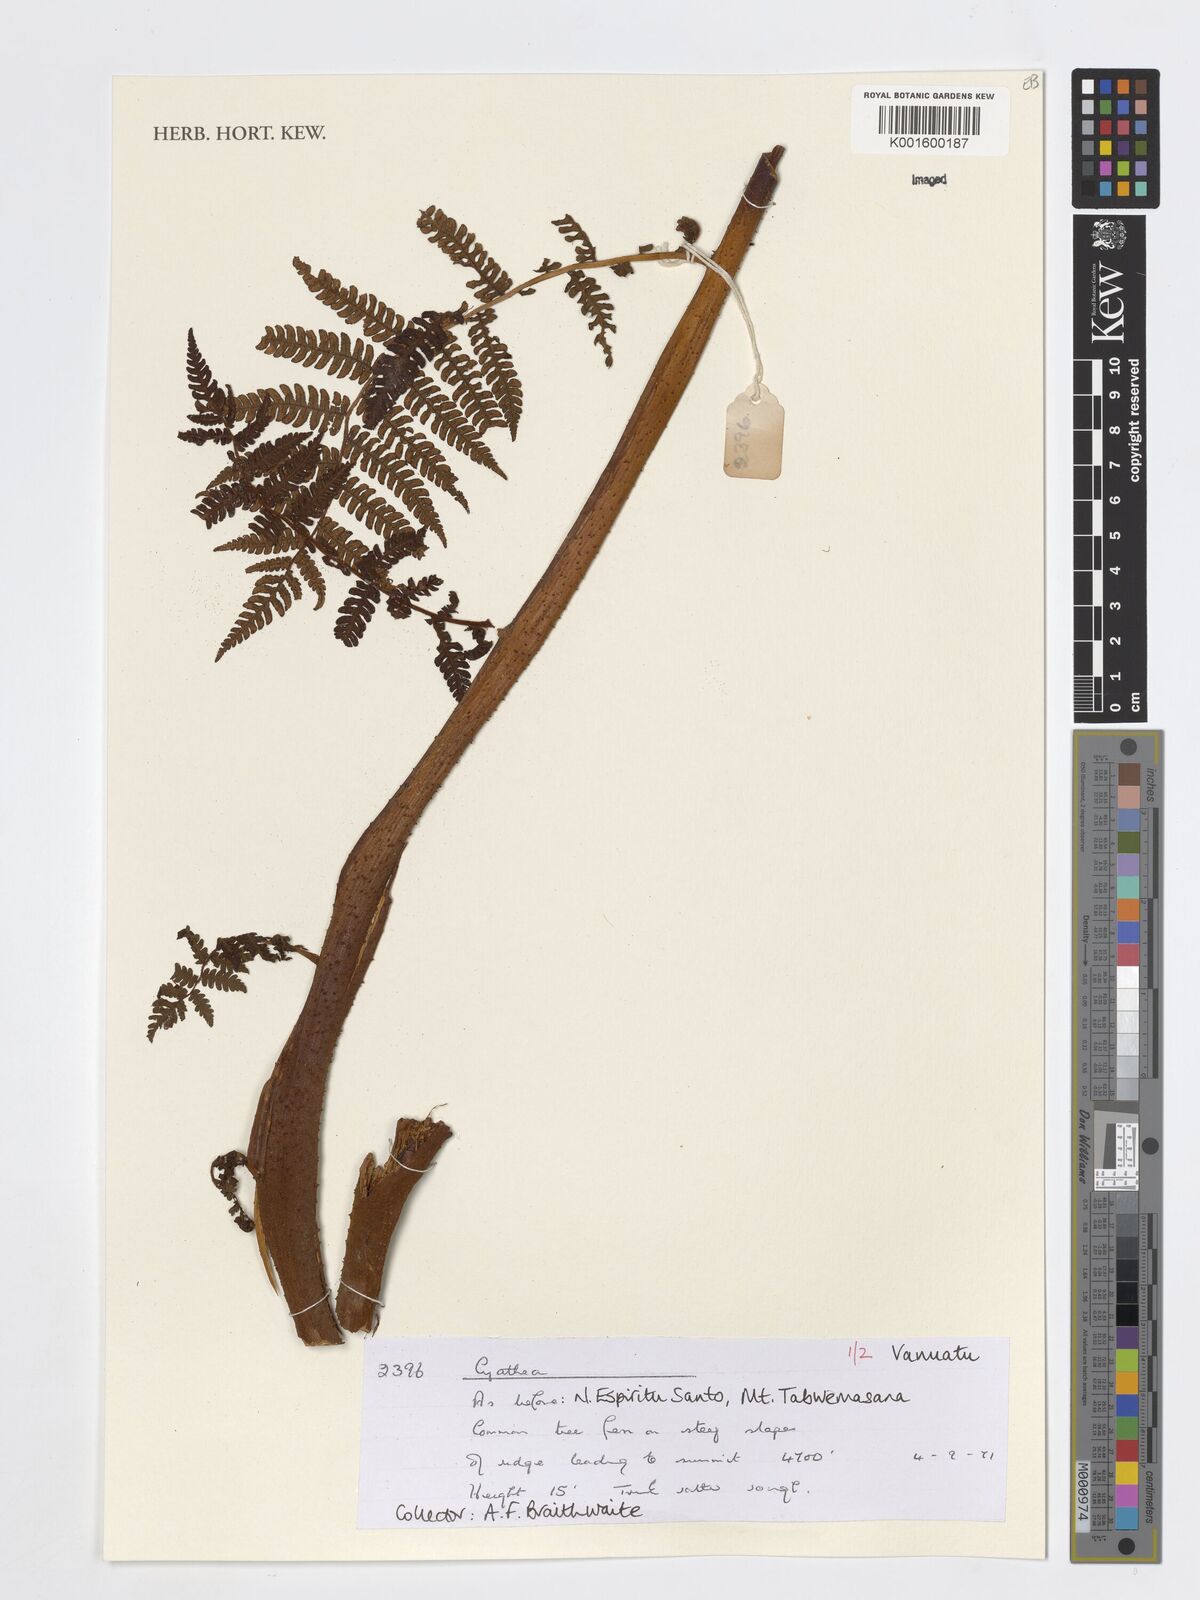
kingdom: Plantae
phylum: Tracheophyta
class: Polypodiopsida
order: Cyatheales
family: Cyatheaceae
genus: Cyathea
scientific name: Cyathea
